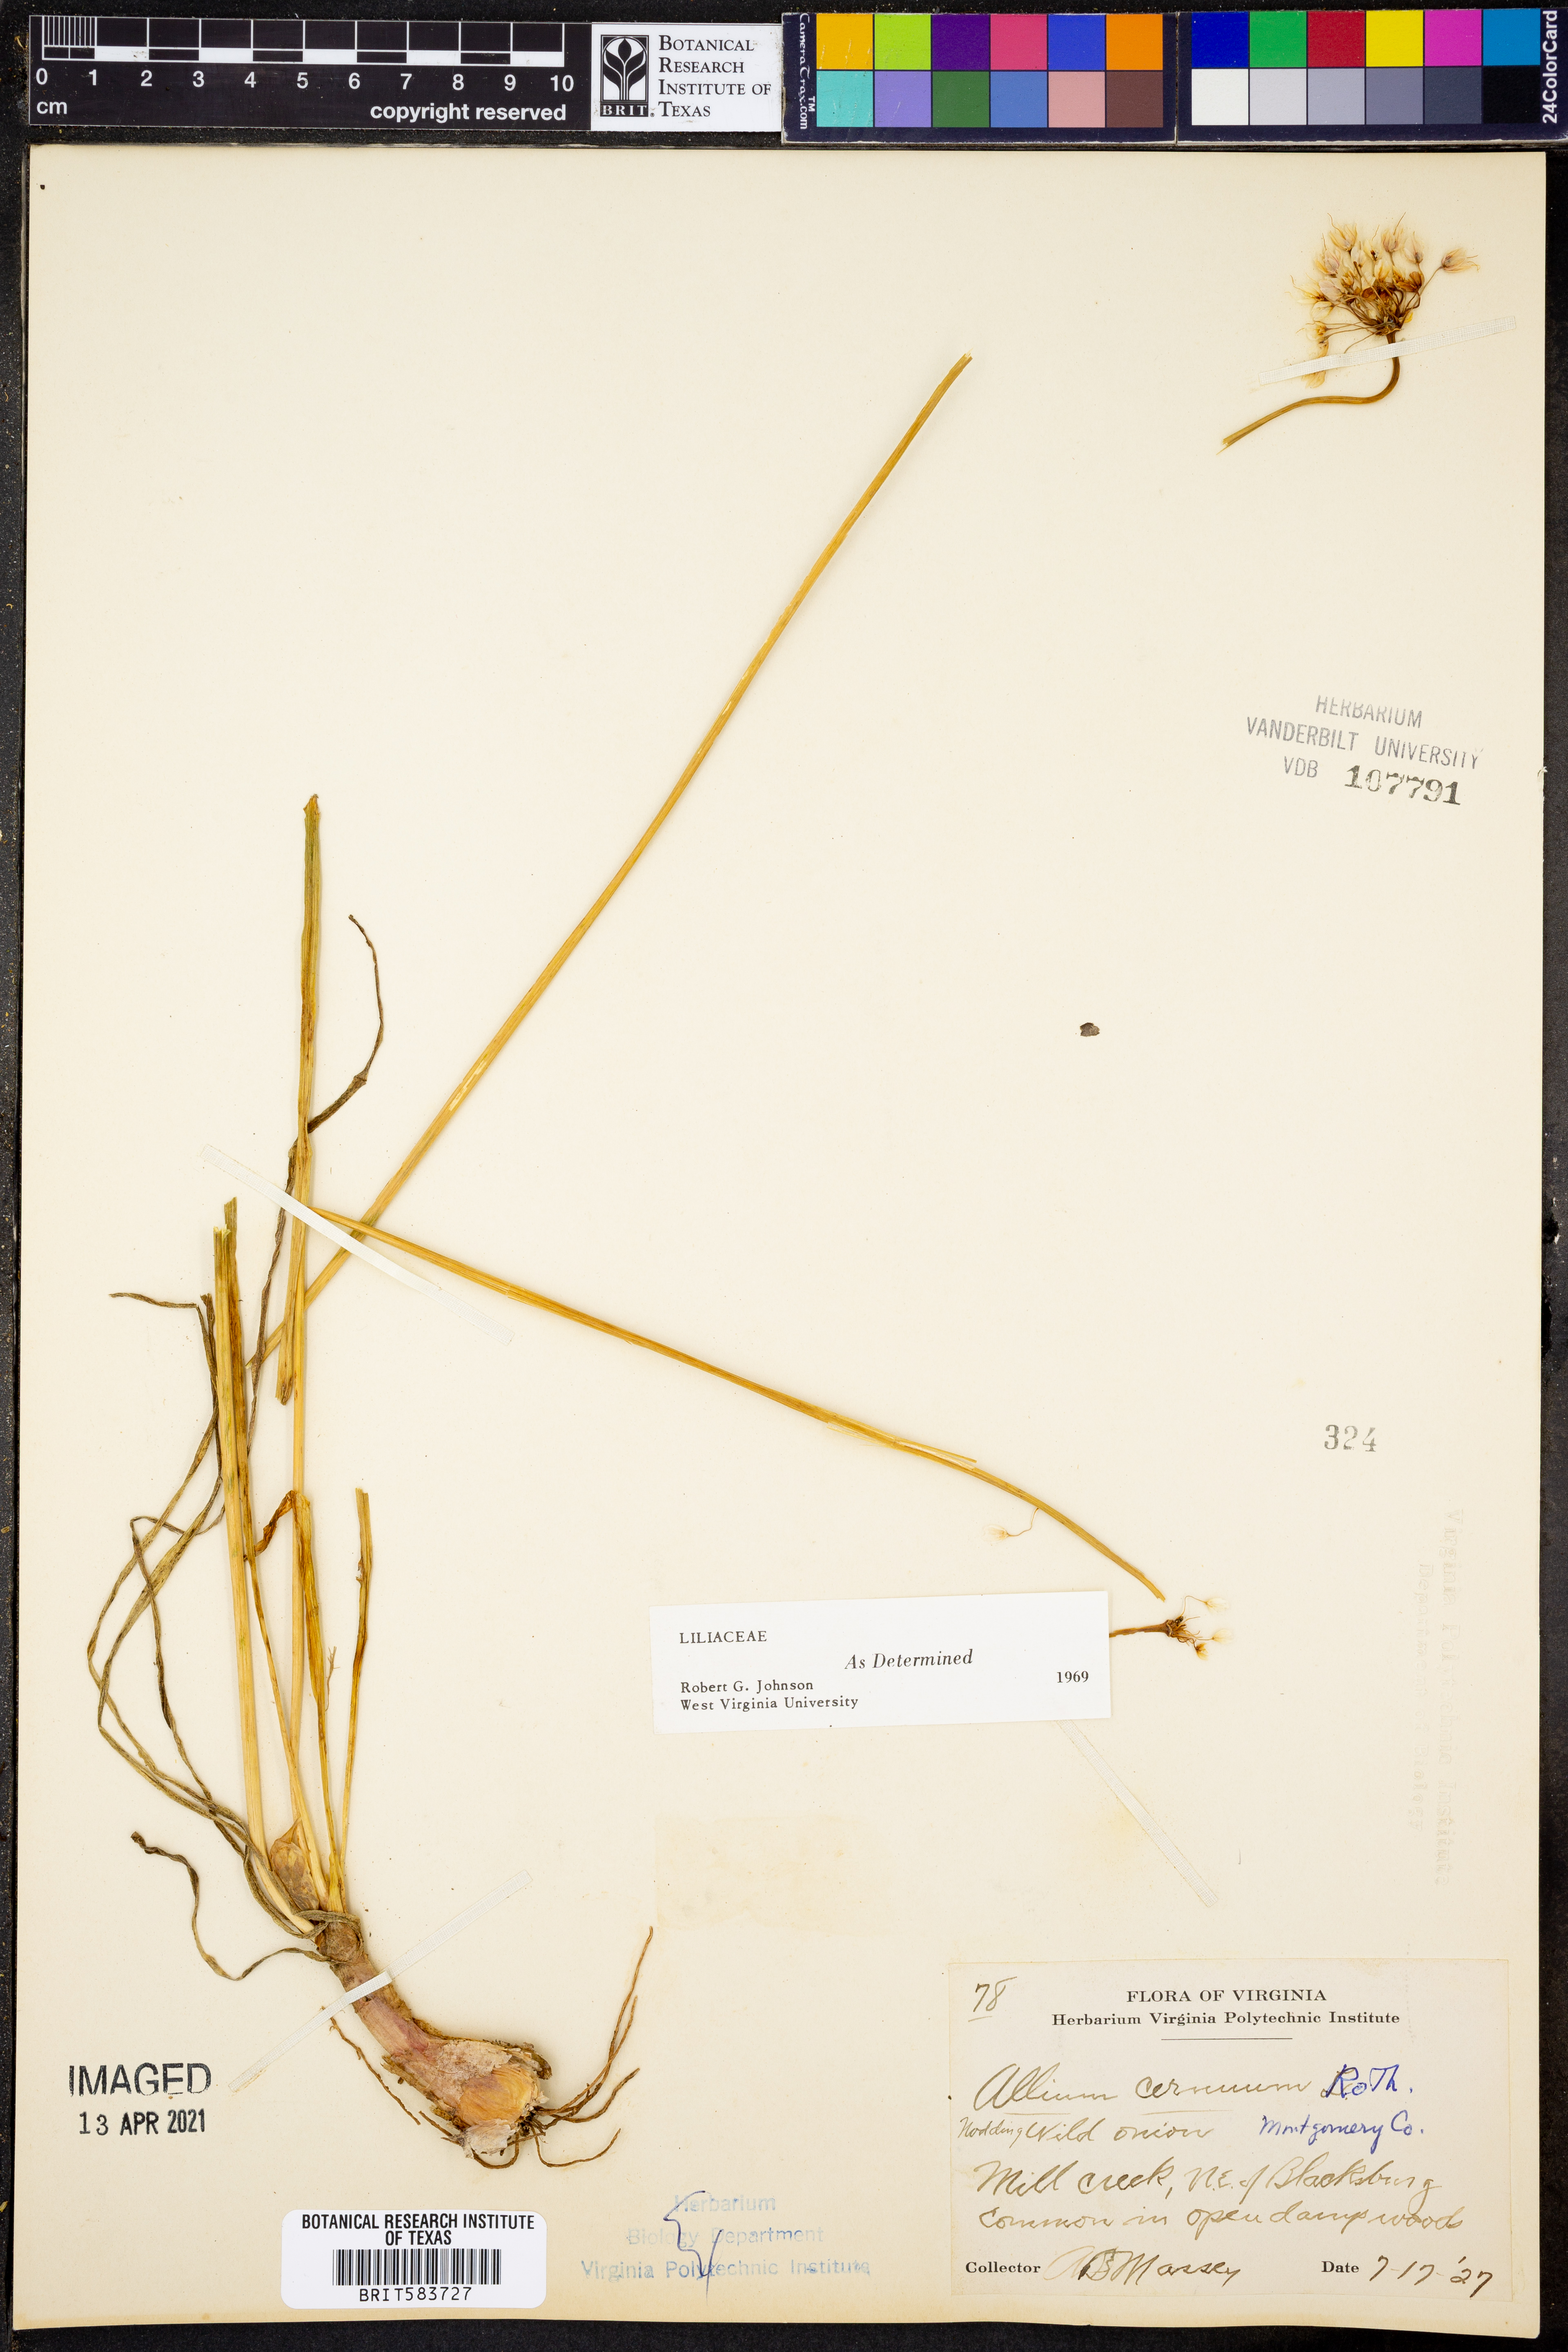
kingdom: Plantae
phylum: Tracheophyta
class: Liliopsida
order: Asparagales
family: Amaryllidaceae
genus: Allium
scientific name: Allium cernuum
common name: Nodding onion
